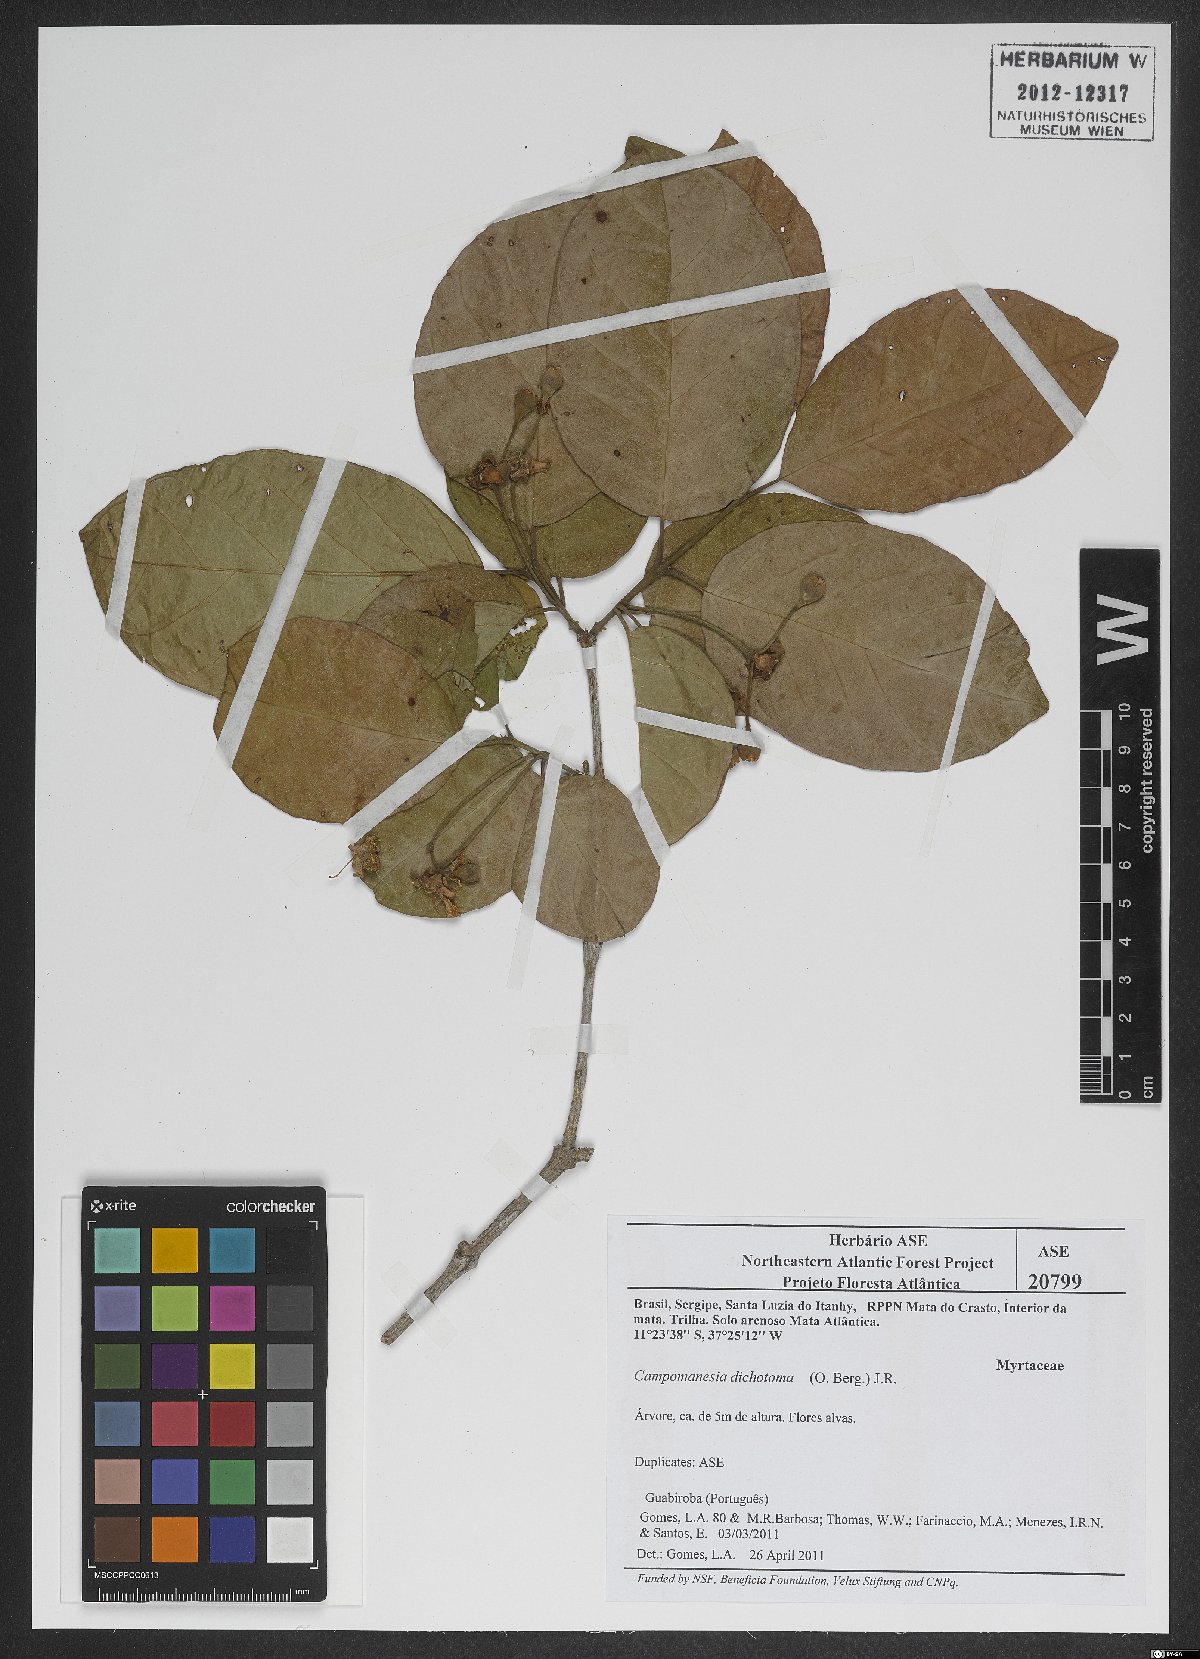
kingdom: Plantae
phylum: Tracheophyta
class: Magnoliopsida
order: Myrtales
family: Myrtaceae
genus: Campomanesia
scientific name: Campomanesia dichotoma
